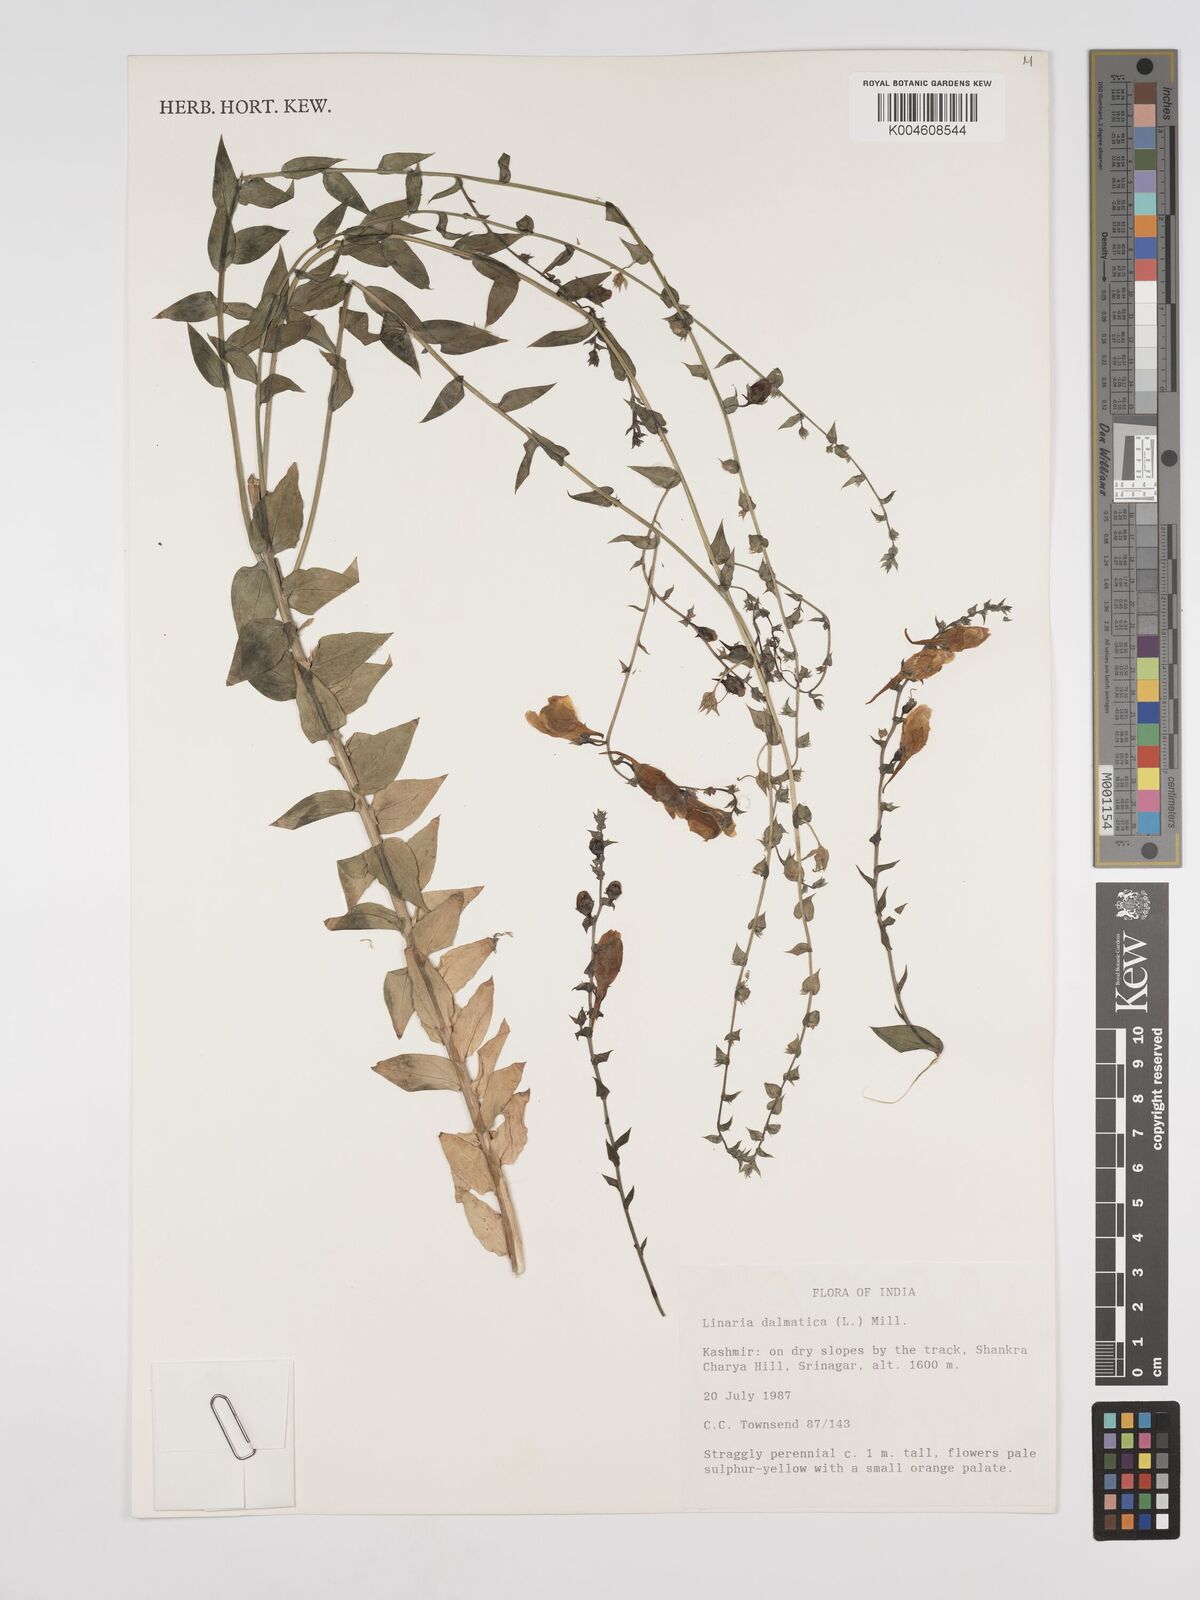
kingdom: Plantae
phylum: Tracheophyta
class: Magnoliopsida
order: Lamiales
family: Plantaginaceae
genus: Kickxia
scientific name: Kickxia
